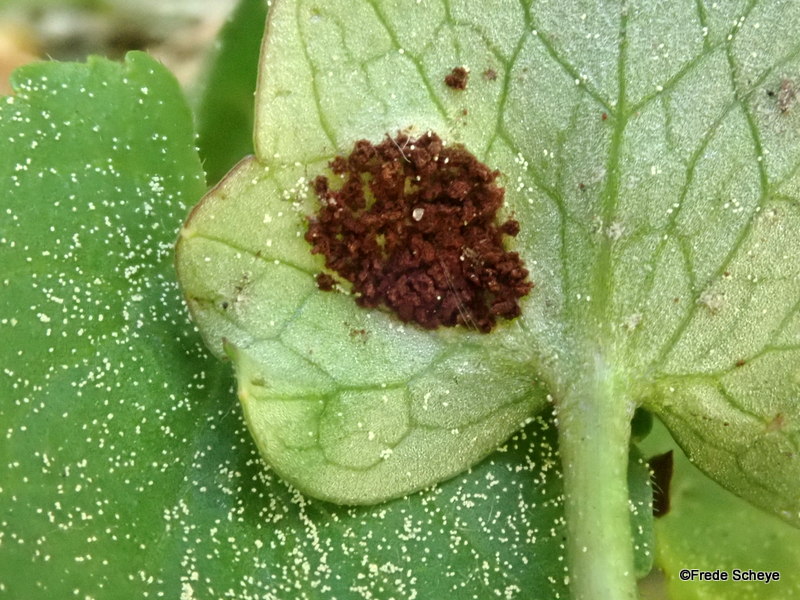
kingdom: Fungi
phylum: Basidiomycota
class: Pucciniomycetes
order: Pucciniales
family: Pucciniaceae
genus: Uromyces
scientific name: Uromyces ficariae
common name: vorterod-encellerust
